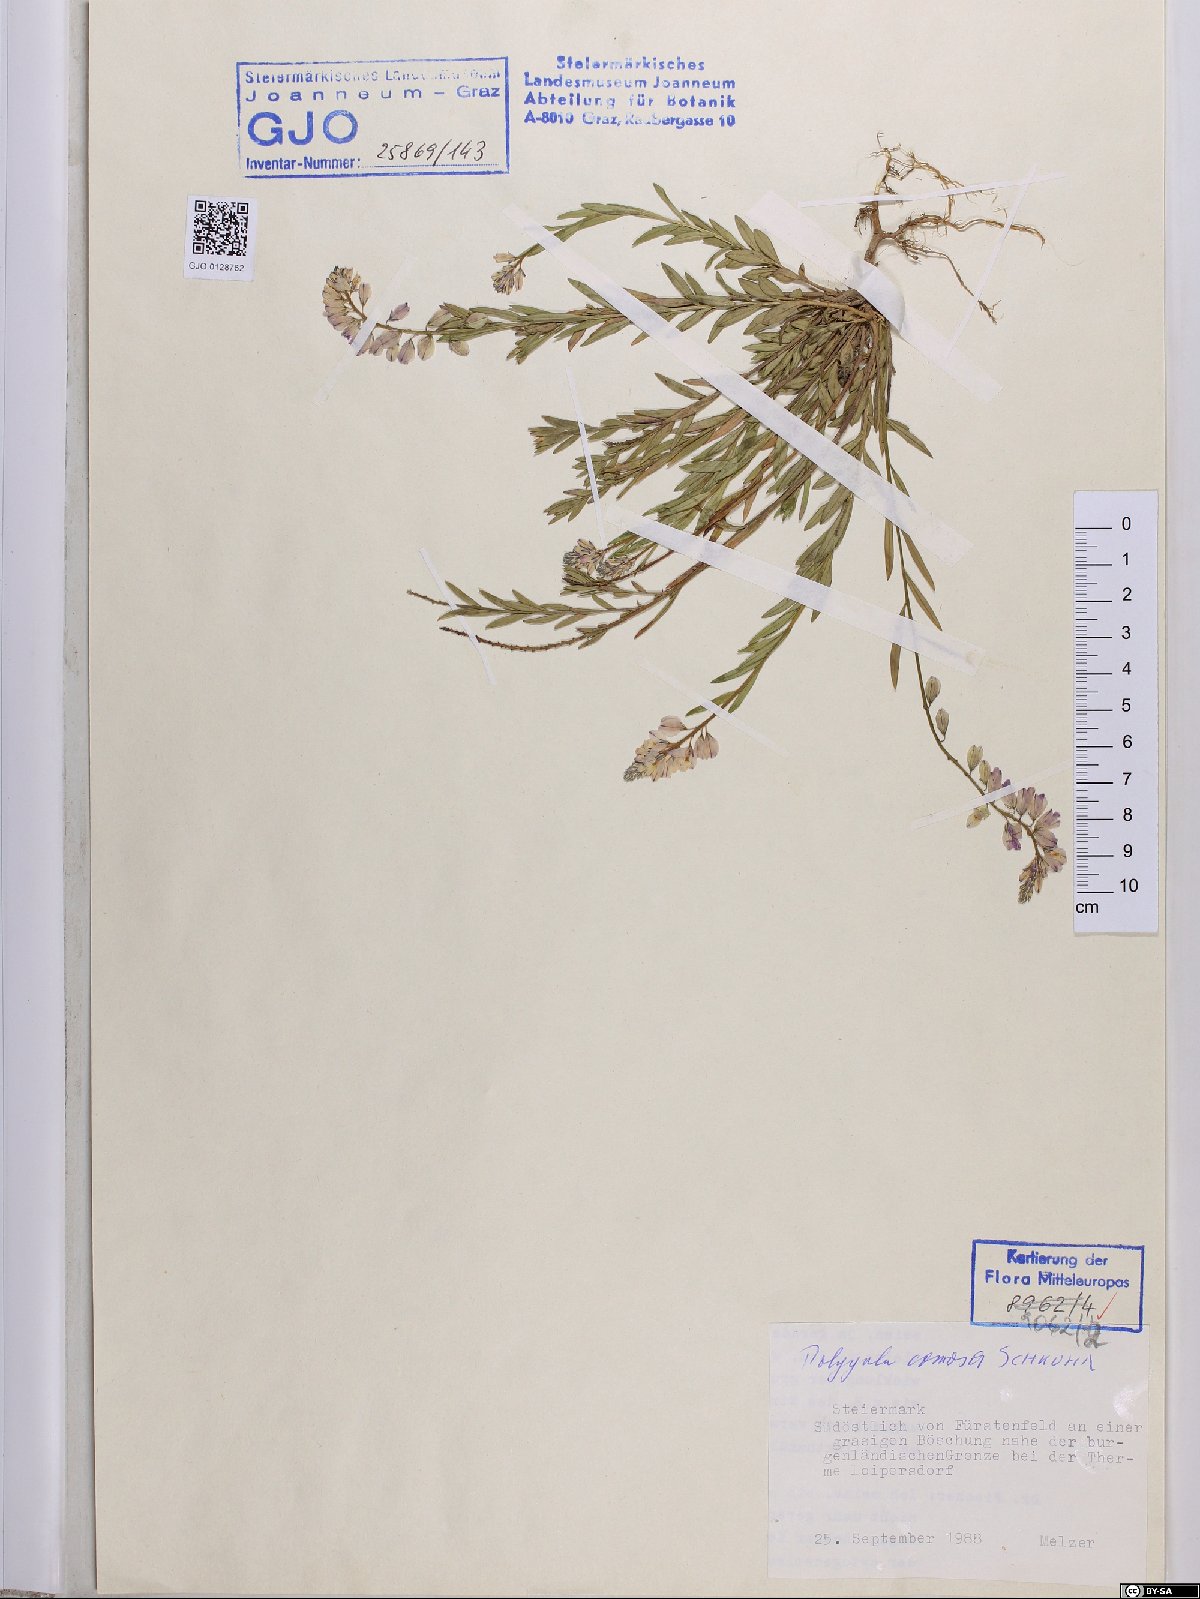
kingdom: Plantae
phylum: Tracheophyta
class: Magnoliopsida
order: Fabales
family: Polygalaceae
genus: Polygala
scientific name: Polygala comosa
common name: Tufted milkwort
